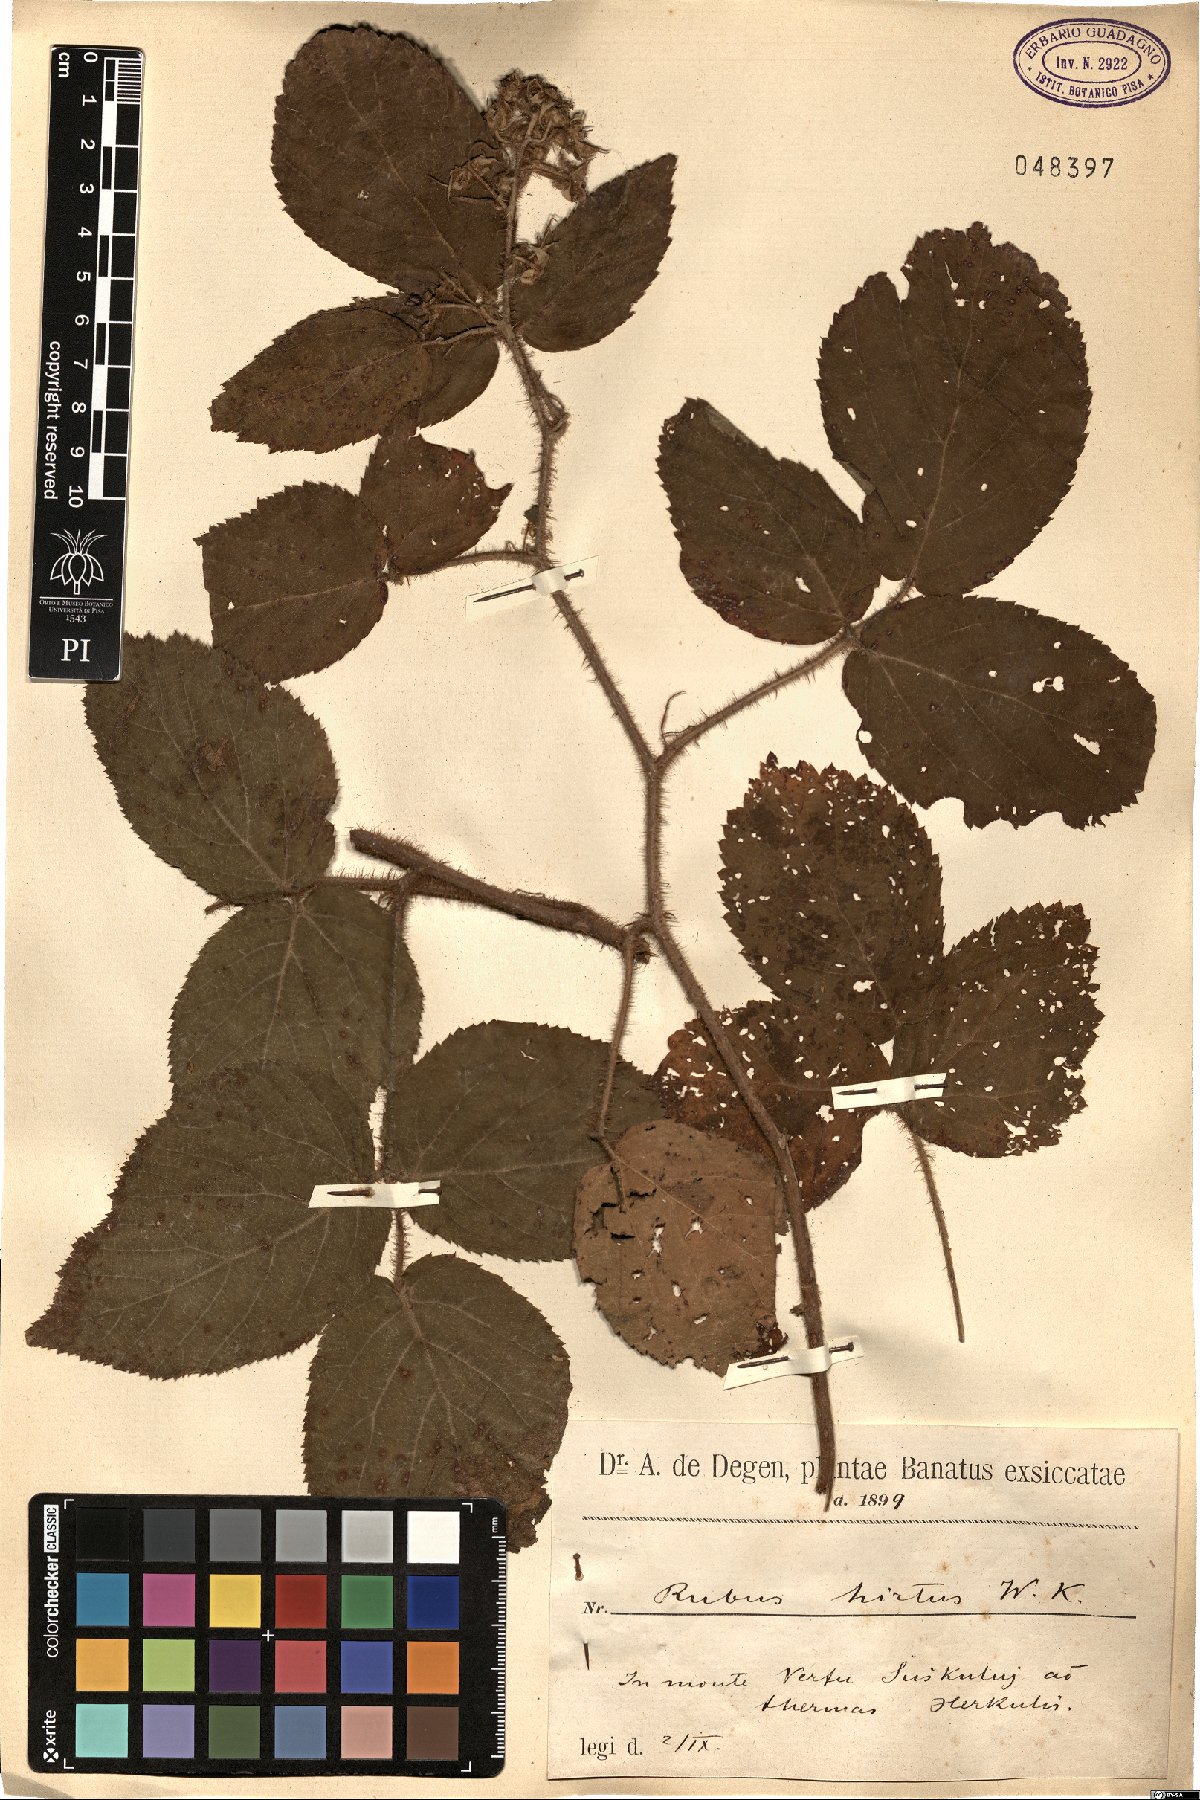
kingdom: Plantae
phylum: Tracheophyta
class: Magnoliopsida
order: Rosales
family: Rosaceae
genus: Rubus
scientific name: Rubus hirtus
